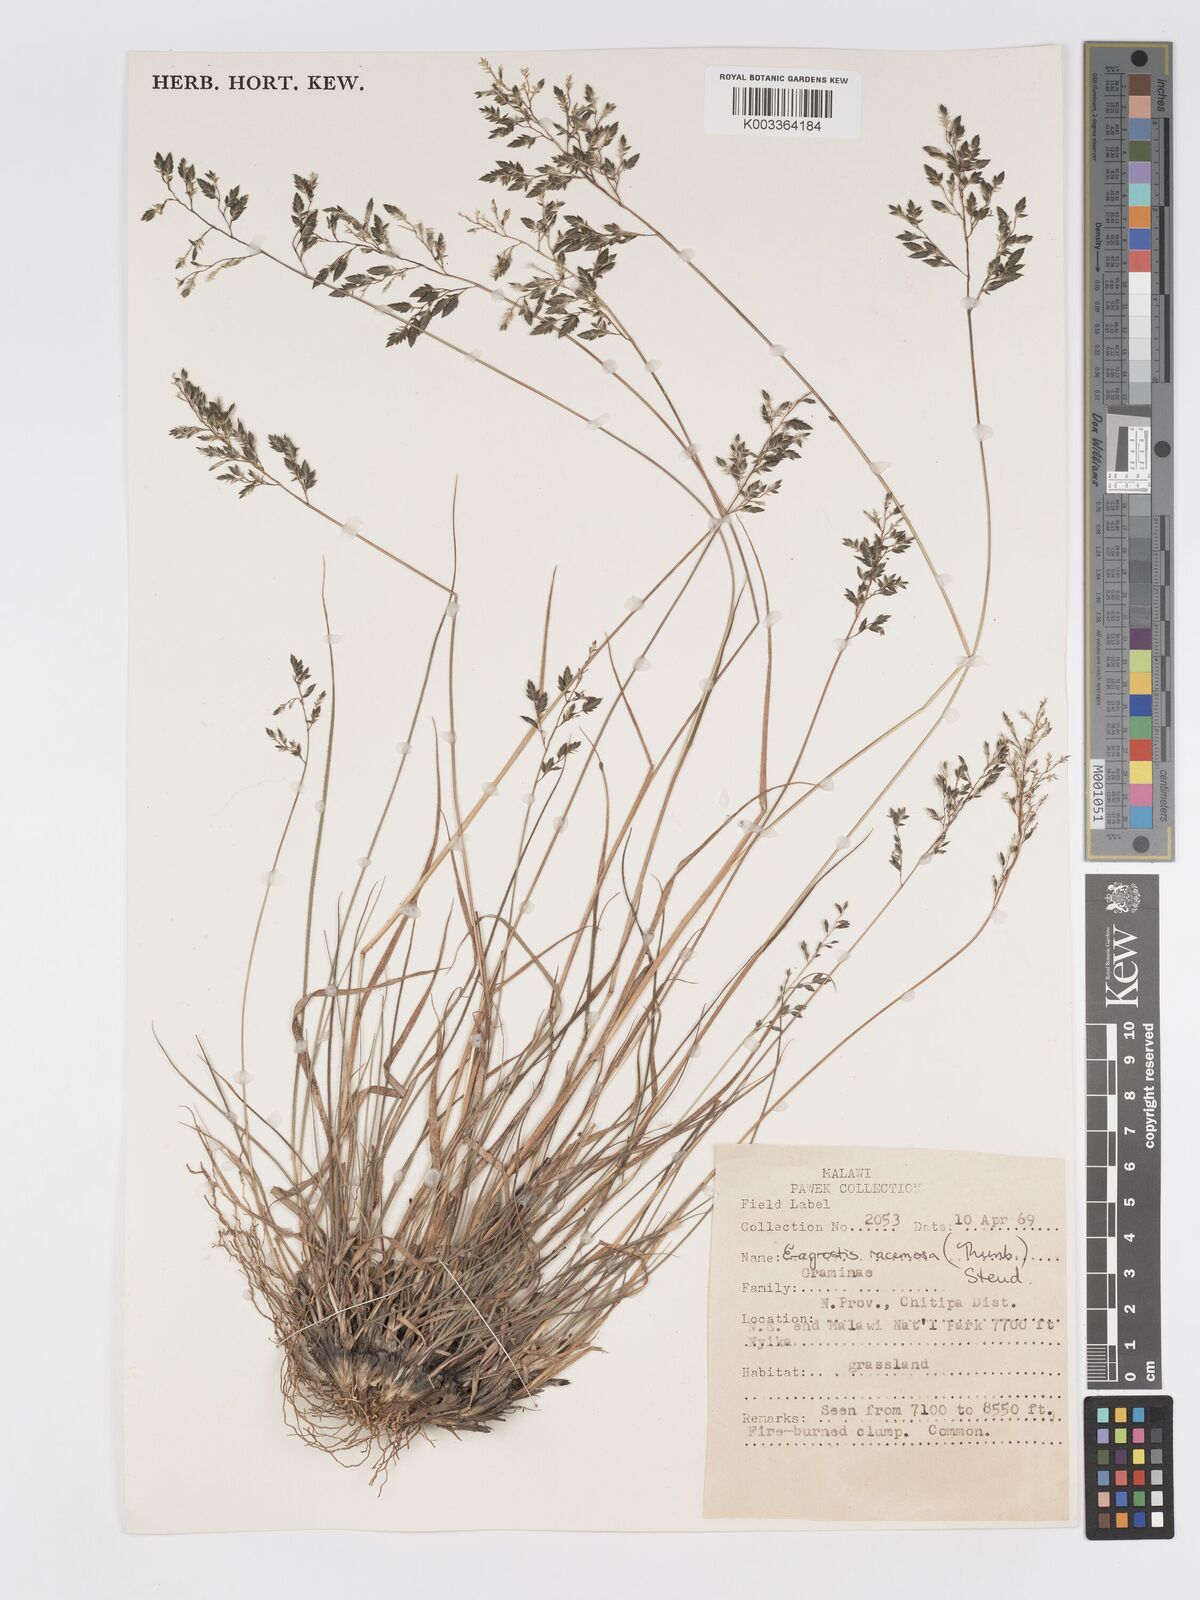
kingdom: Plantae
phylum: Tracheophyta
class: Liliopsida
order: Poales
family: Poaceae
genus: Eragrostis
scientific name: Eragrostis racemosa
